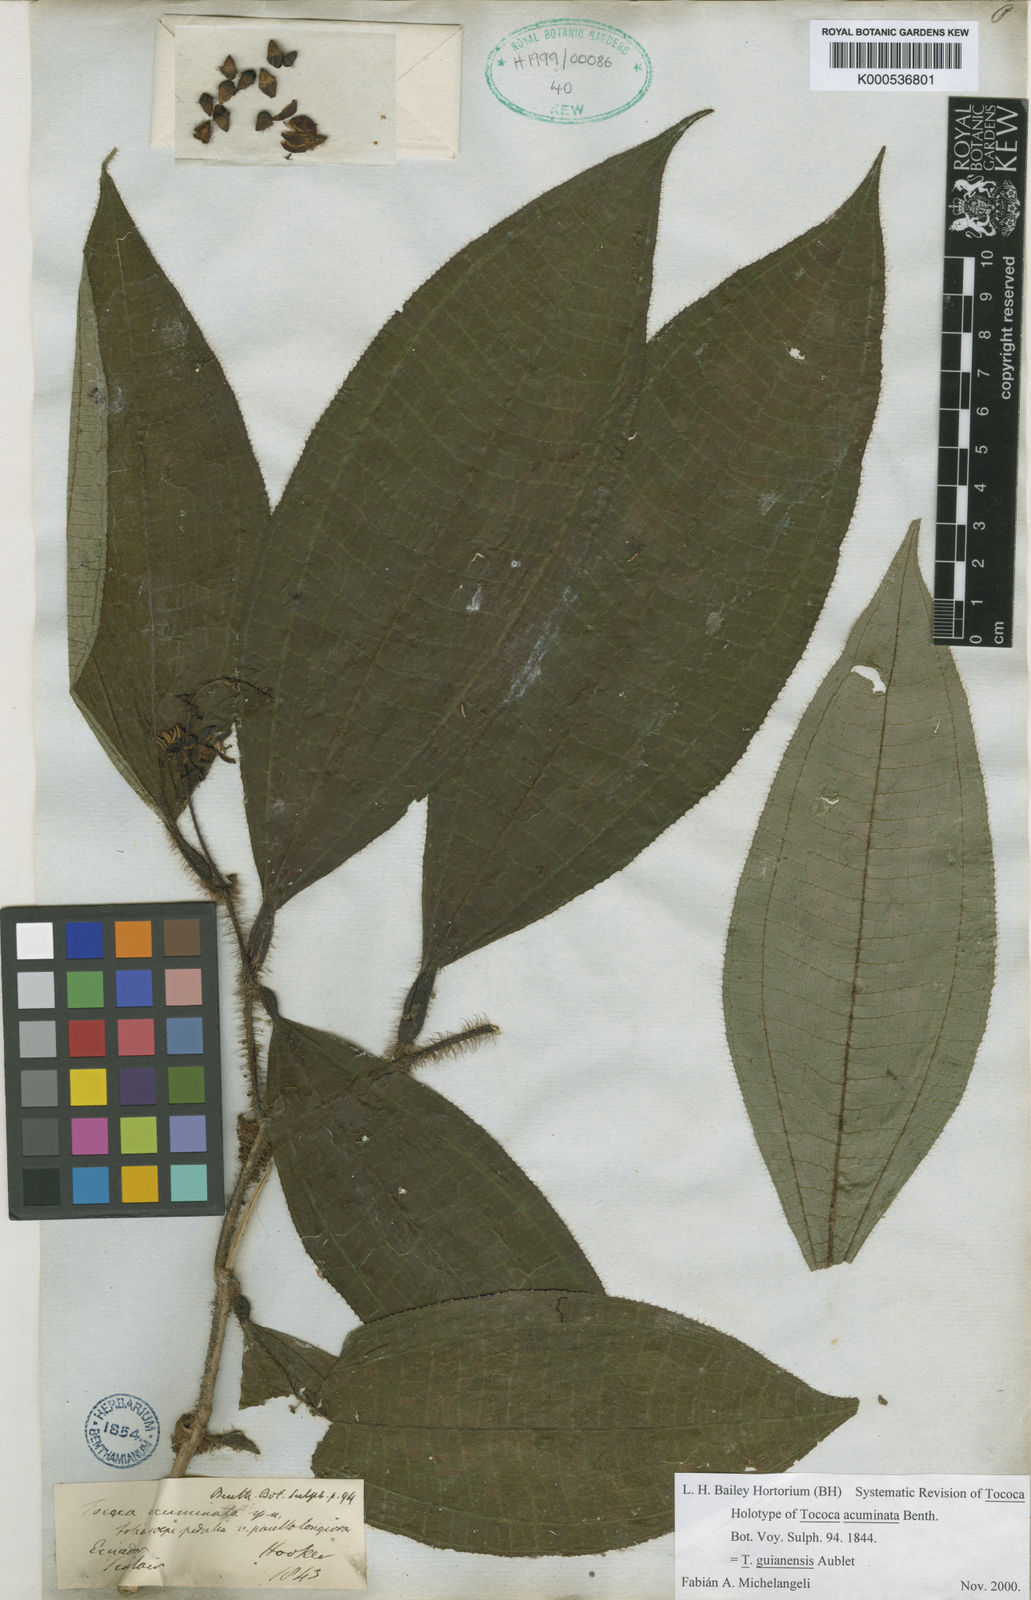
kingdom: Plantae
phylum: Tracheophyta
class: Magnoliopsida
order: Myrtales
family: Melastomataceae
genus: Miconia
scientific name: Miconia tococa
